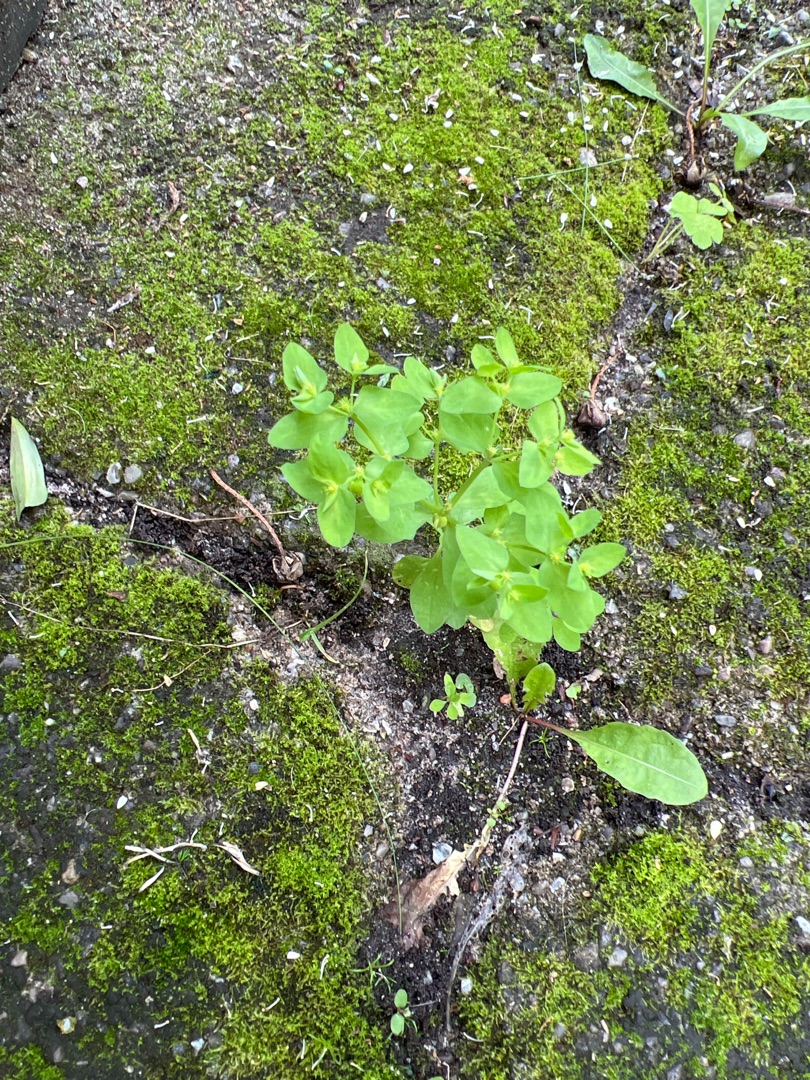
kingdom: Plantae
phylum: Tracheophyta
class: Magnoliopsida
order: Malpighiales
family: Euphorbiaceae
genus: Euphorbia
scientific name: Euphorbia peplus
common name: Gaffel-vortemælk
